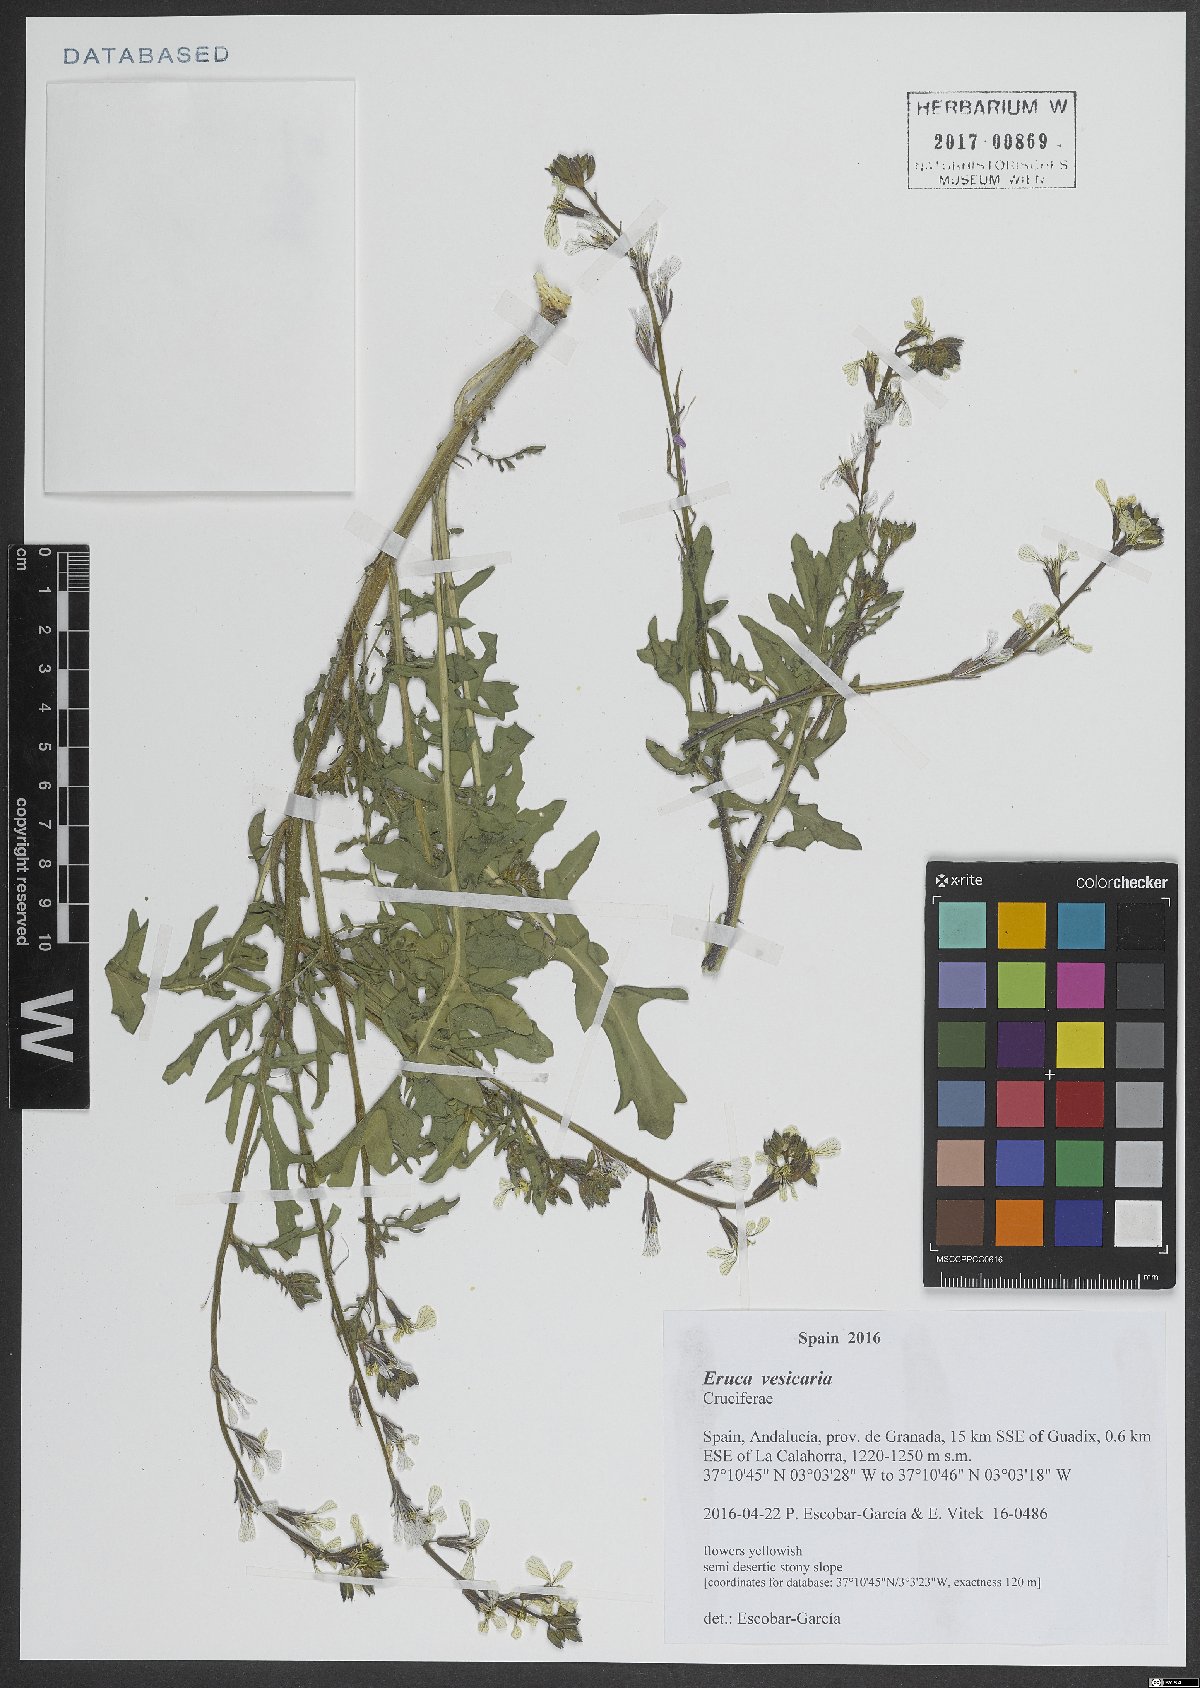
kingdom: Plantae
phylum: Tracheophyta
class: Magnoliopsida
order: Brassicales
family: Brassicaceae
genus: Eruca
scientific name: Eruca vesicaria
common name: Garden rocket
